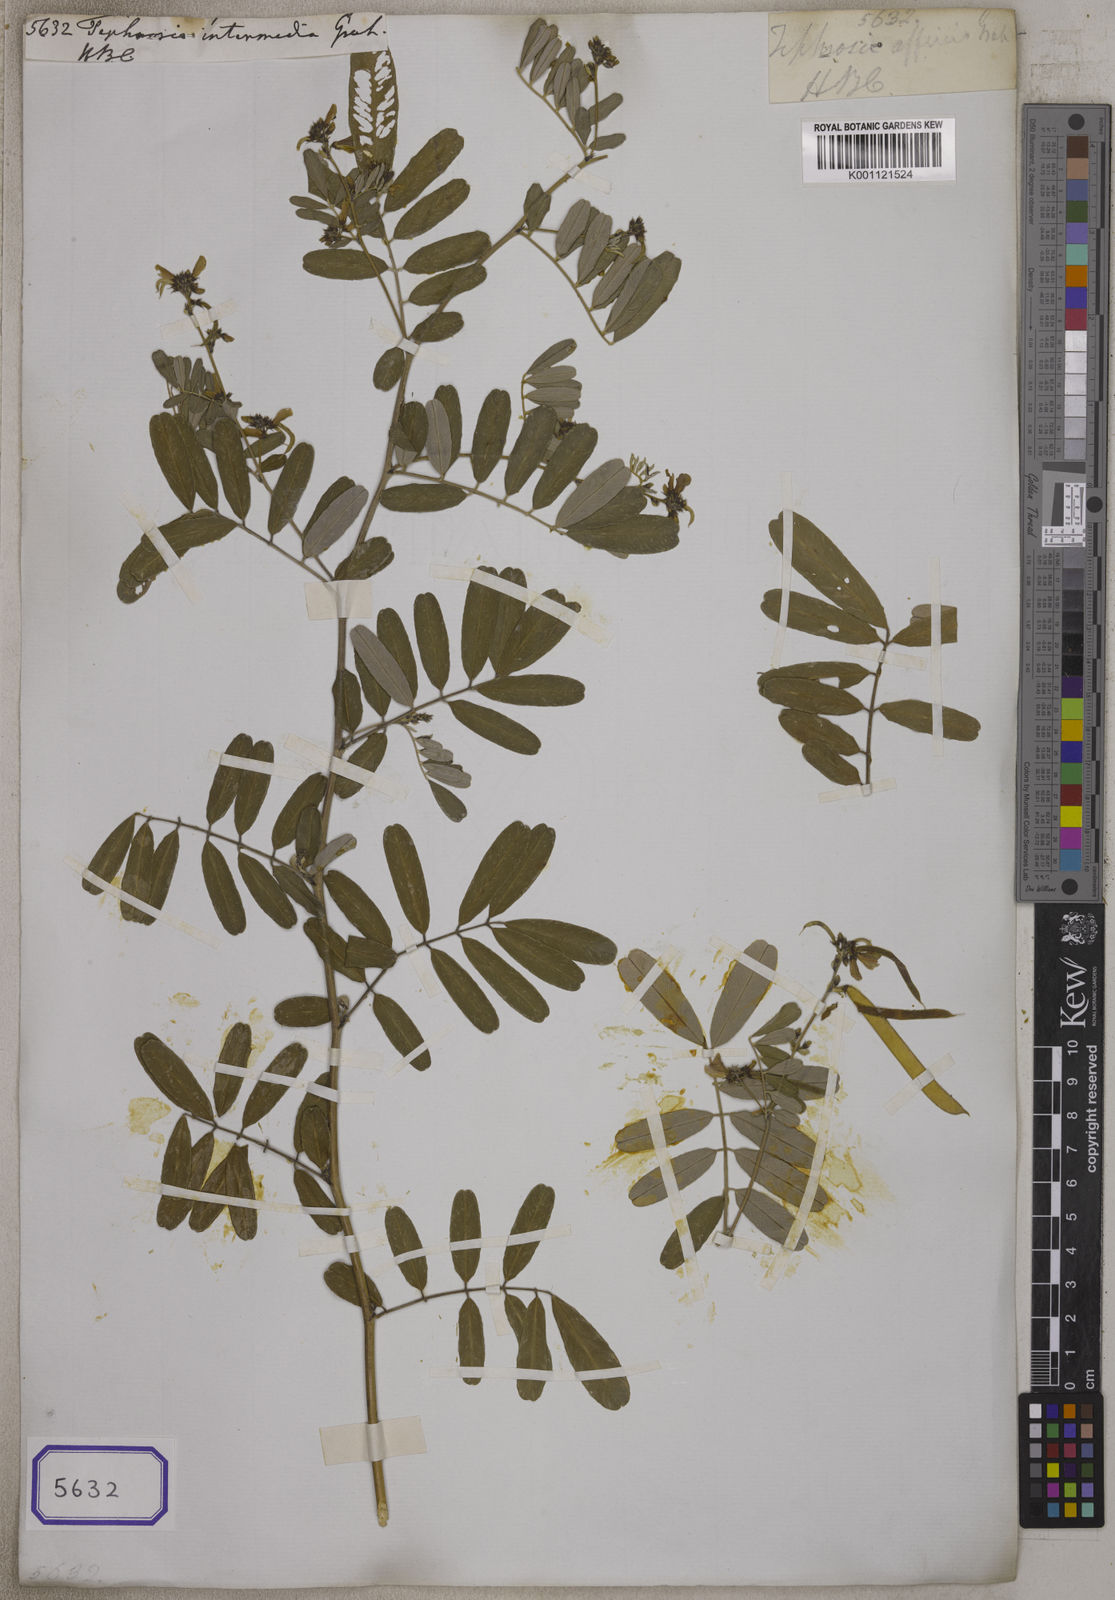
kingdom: Plantae
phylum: Tracheophyta
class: Magnoliopsida
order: Fabales
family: Fabaceae
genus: Tephrosia
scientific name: Tephrosia
